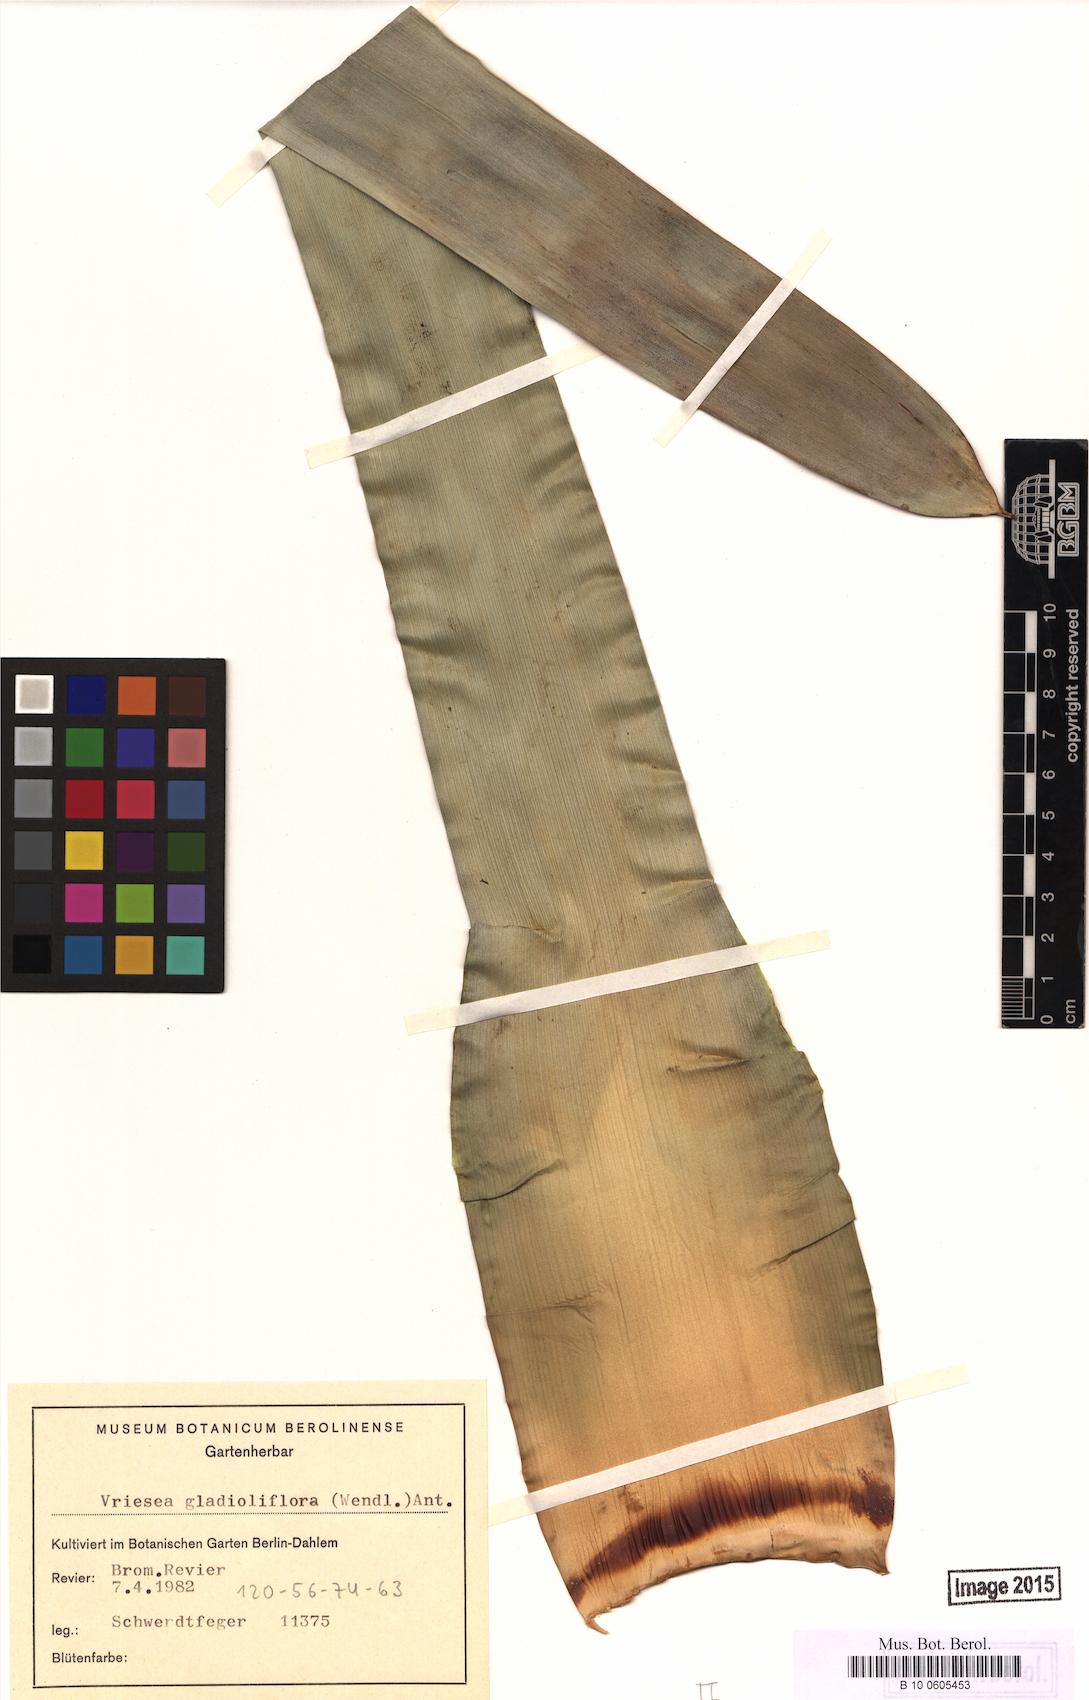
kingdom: Plantae
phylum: Tracheophyta
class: Liliopsida
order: Poales
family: Bromeliaceae
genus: Werauhia
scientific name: Werauhia gladioliflora
